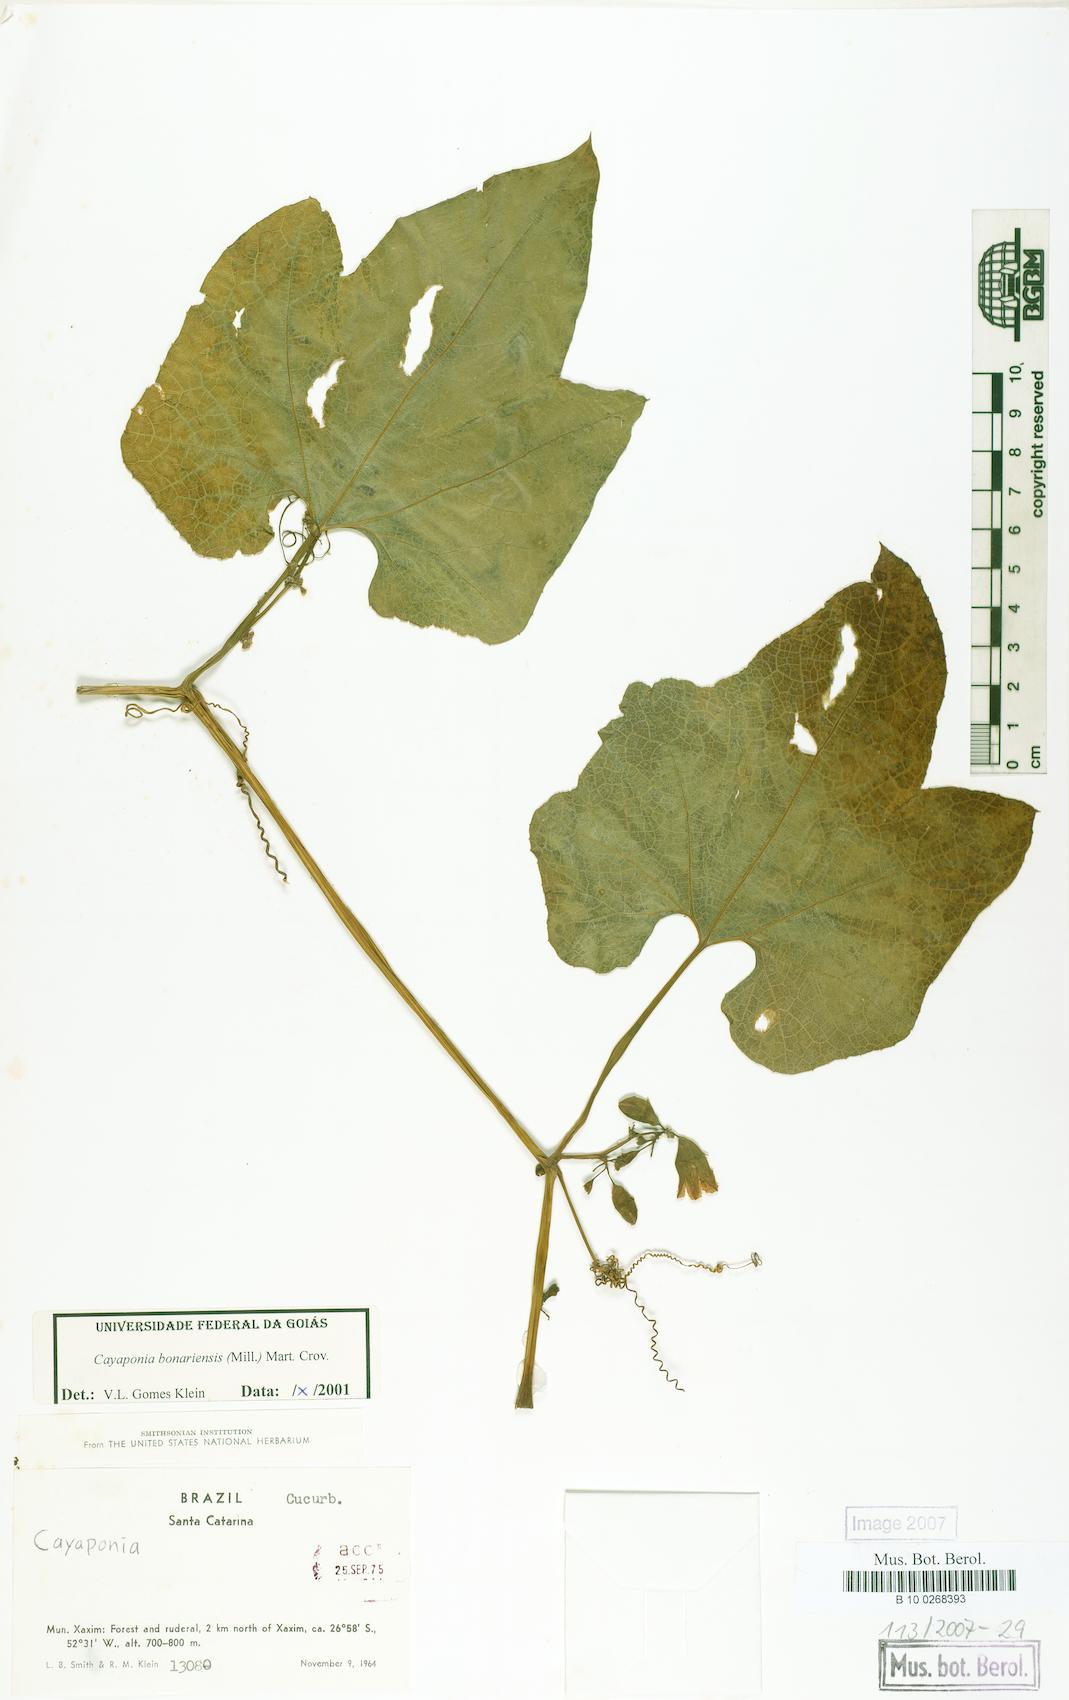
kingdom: Plantae
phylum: Tracheophyta
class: Magnoliopsida
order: Cucurbitales
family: Cucurbitaceae
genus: Cayaponia
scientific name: Cayaponia bonariensis
